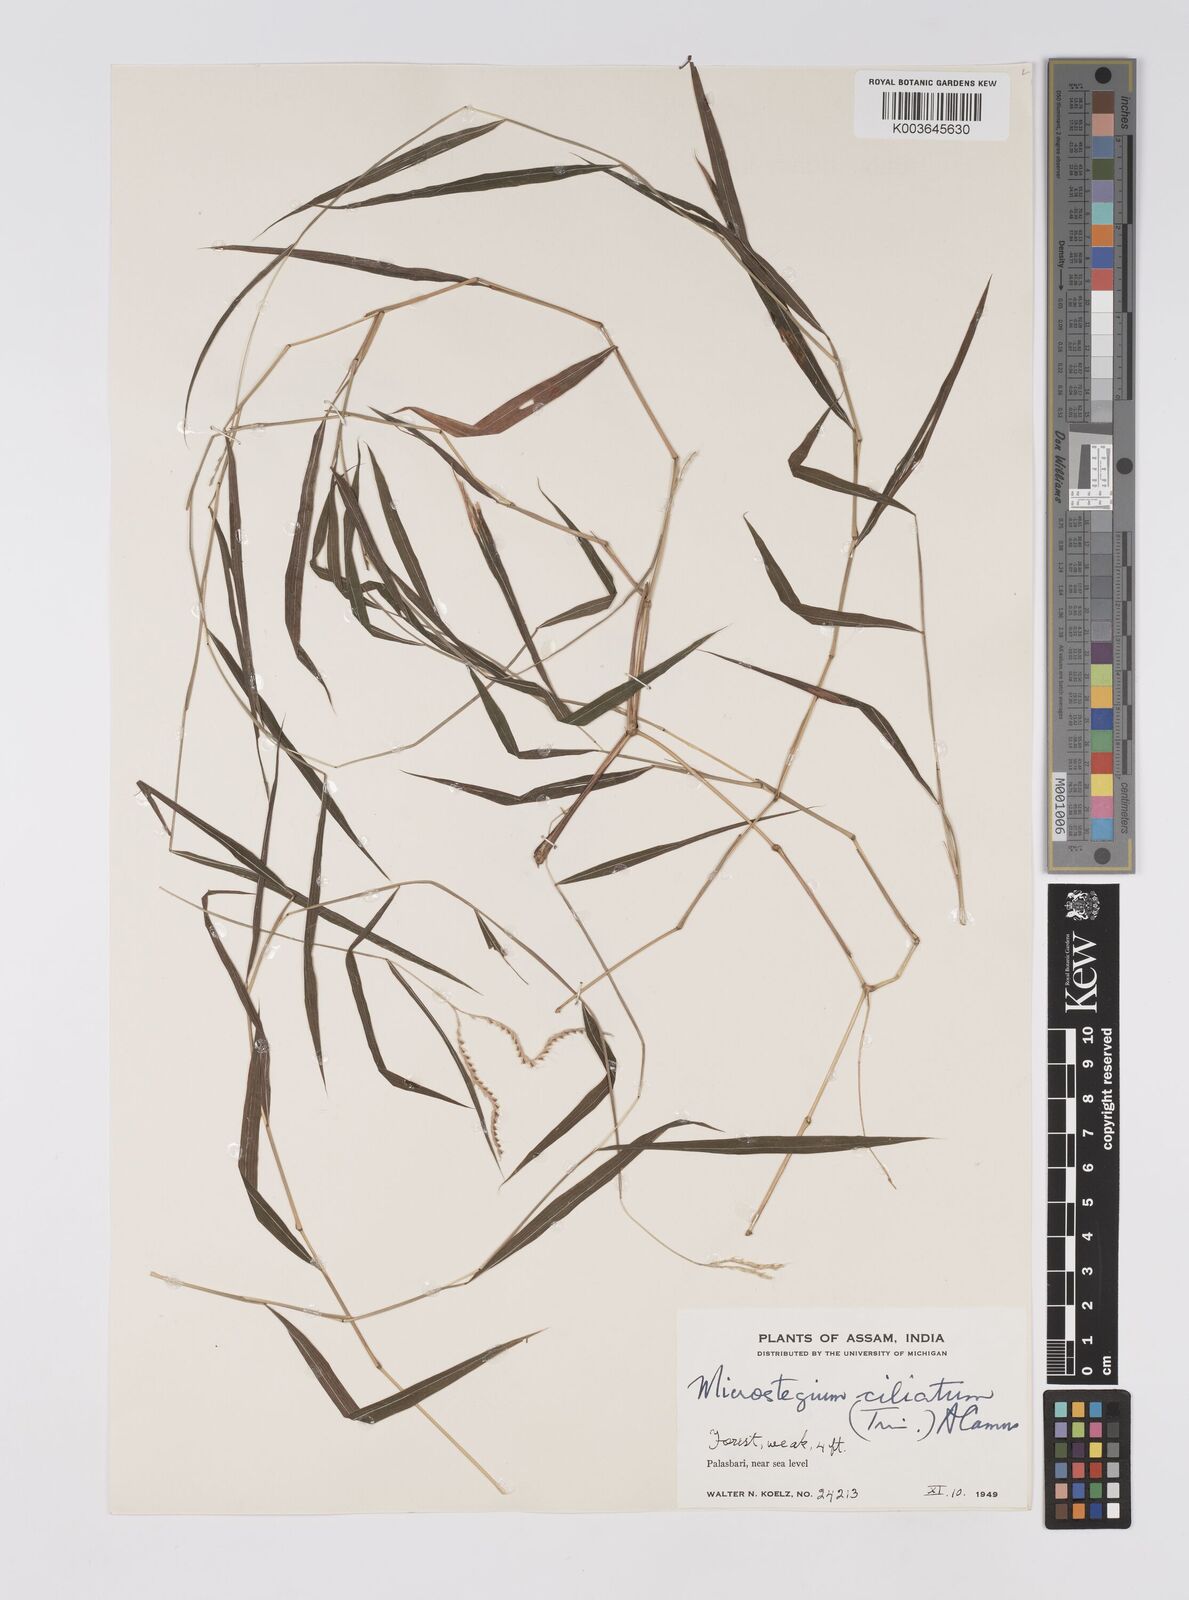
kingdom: Plantae
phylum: Tracheophyta
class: Liliopsida
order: Poales
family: Poaceae
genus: Microstegium
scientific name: Microstegium fasciculatum
